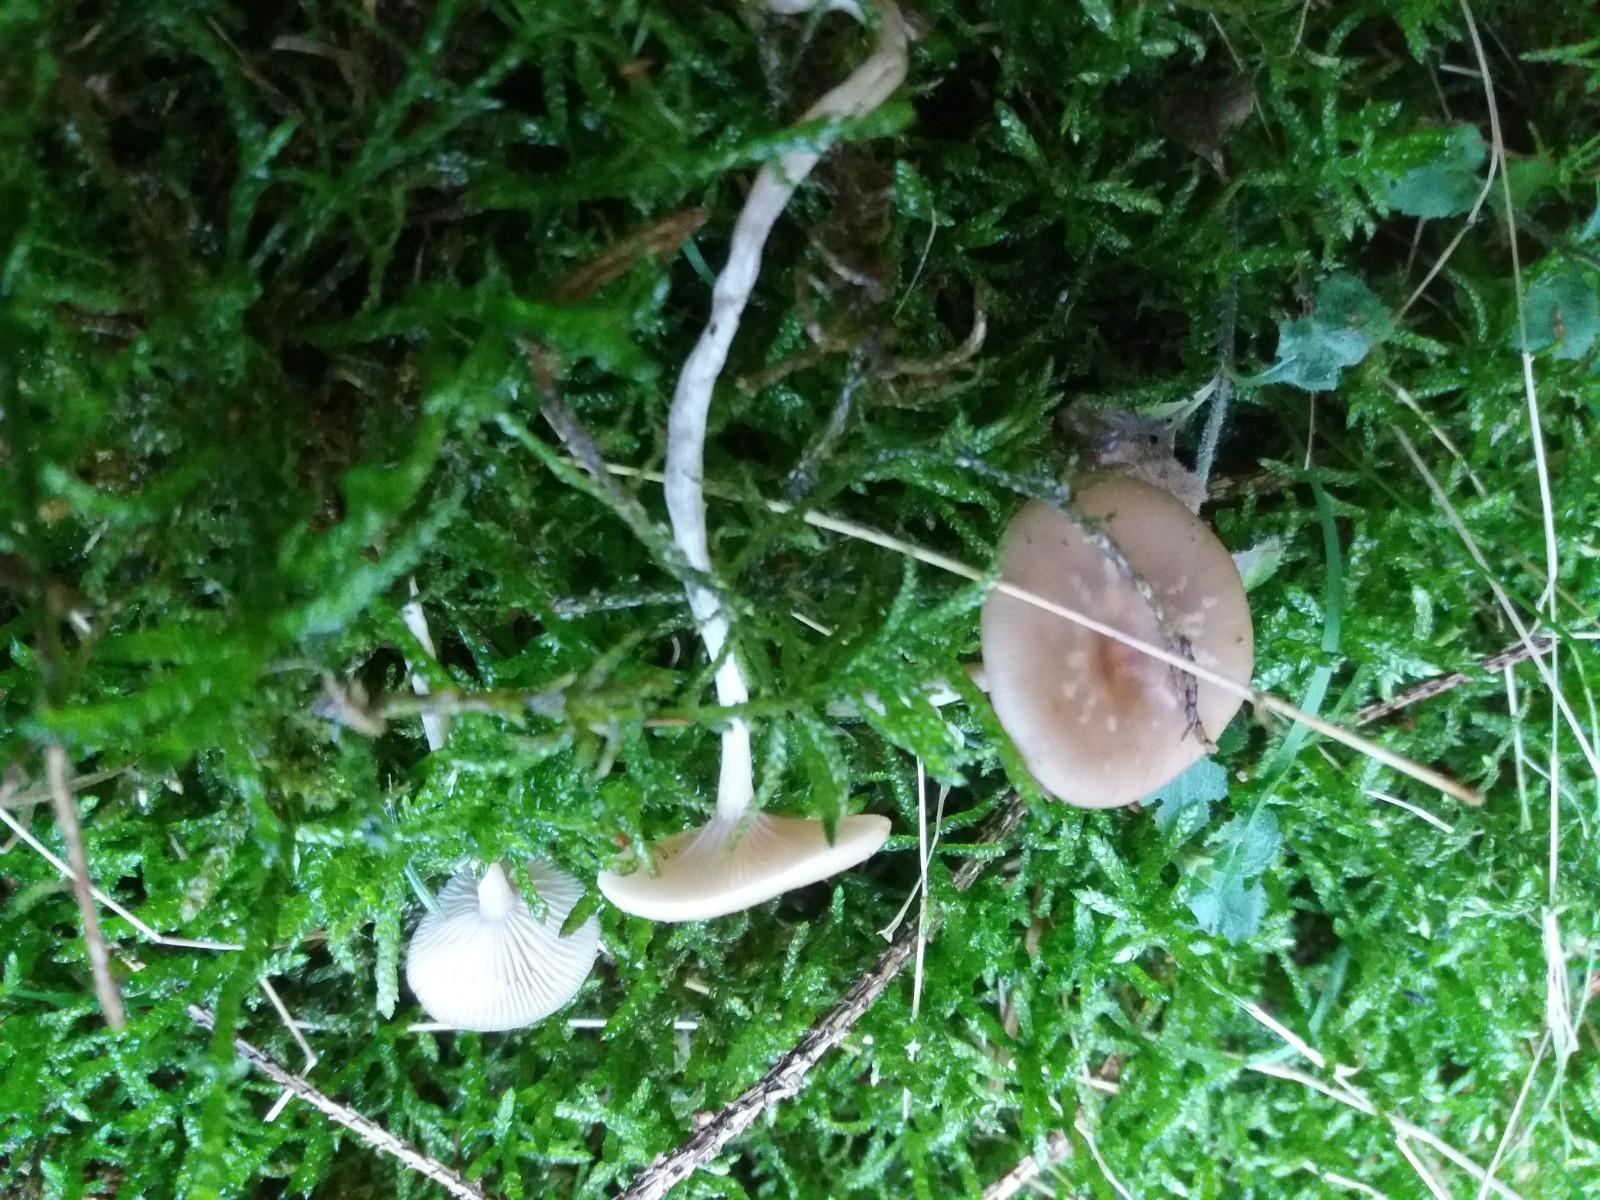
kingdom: Fungi
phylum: Basidiomycota
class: Agaricomycetes
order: Agaricales
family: Tricholomataceae
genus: Clitocybe
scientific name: Clitocybe fragrans
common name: vellugtende tragthat
